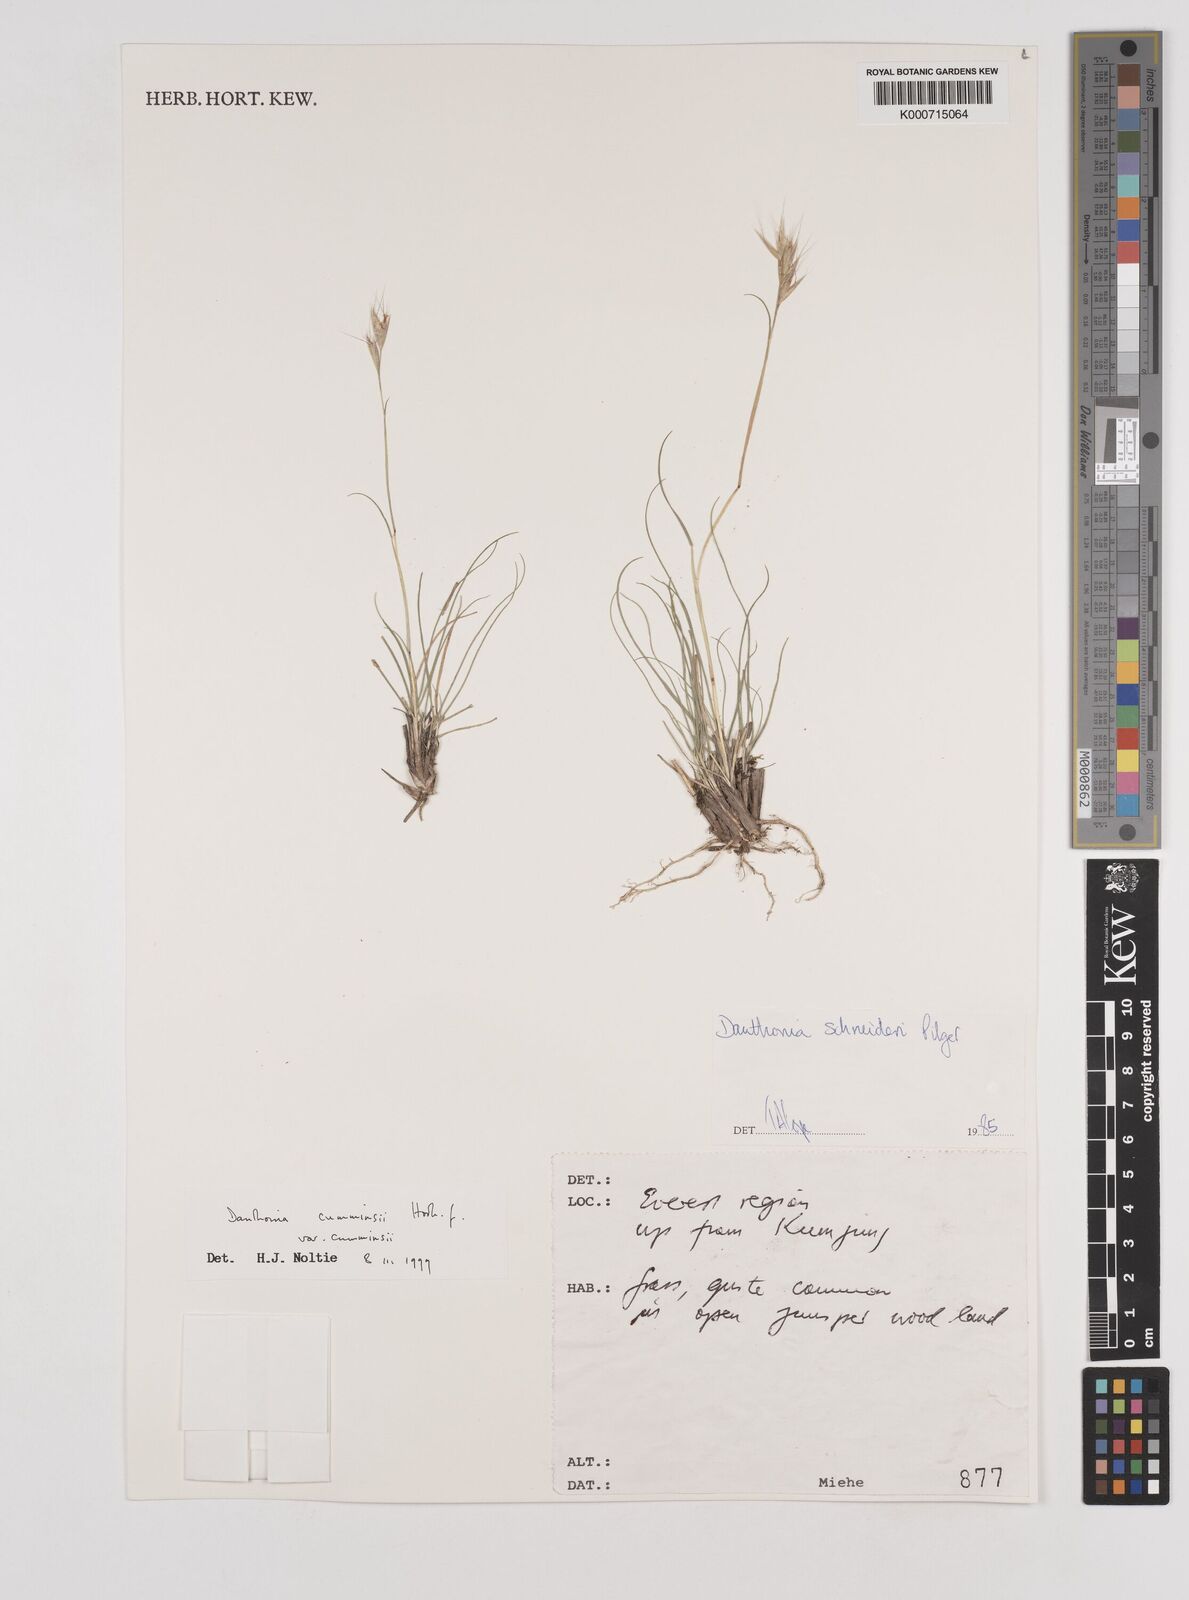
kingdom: Plantae
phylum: Tracheophyta
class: Liliopsida
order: Poales
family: Poaceae
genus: Rytidosperma
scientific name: Rytidosperma
